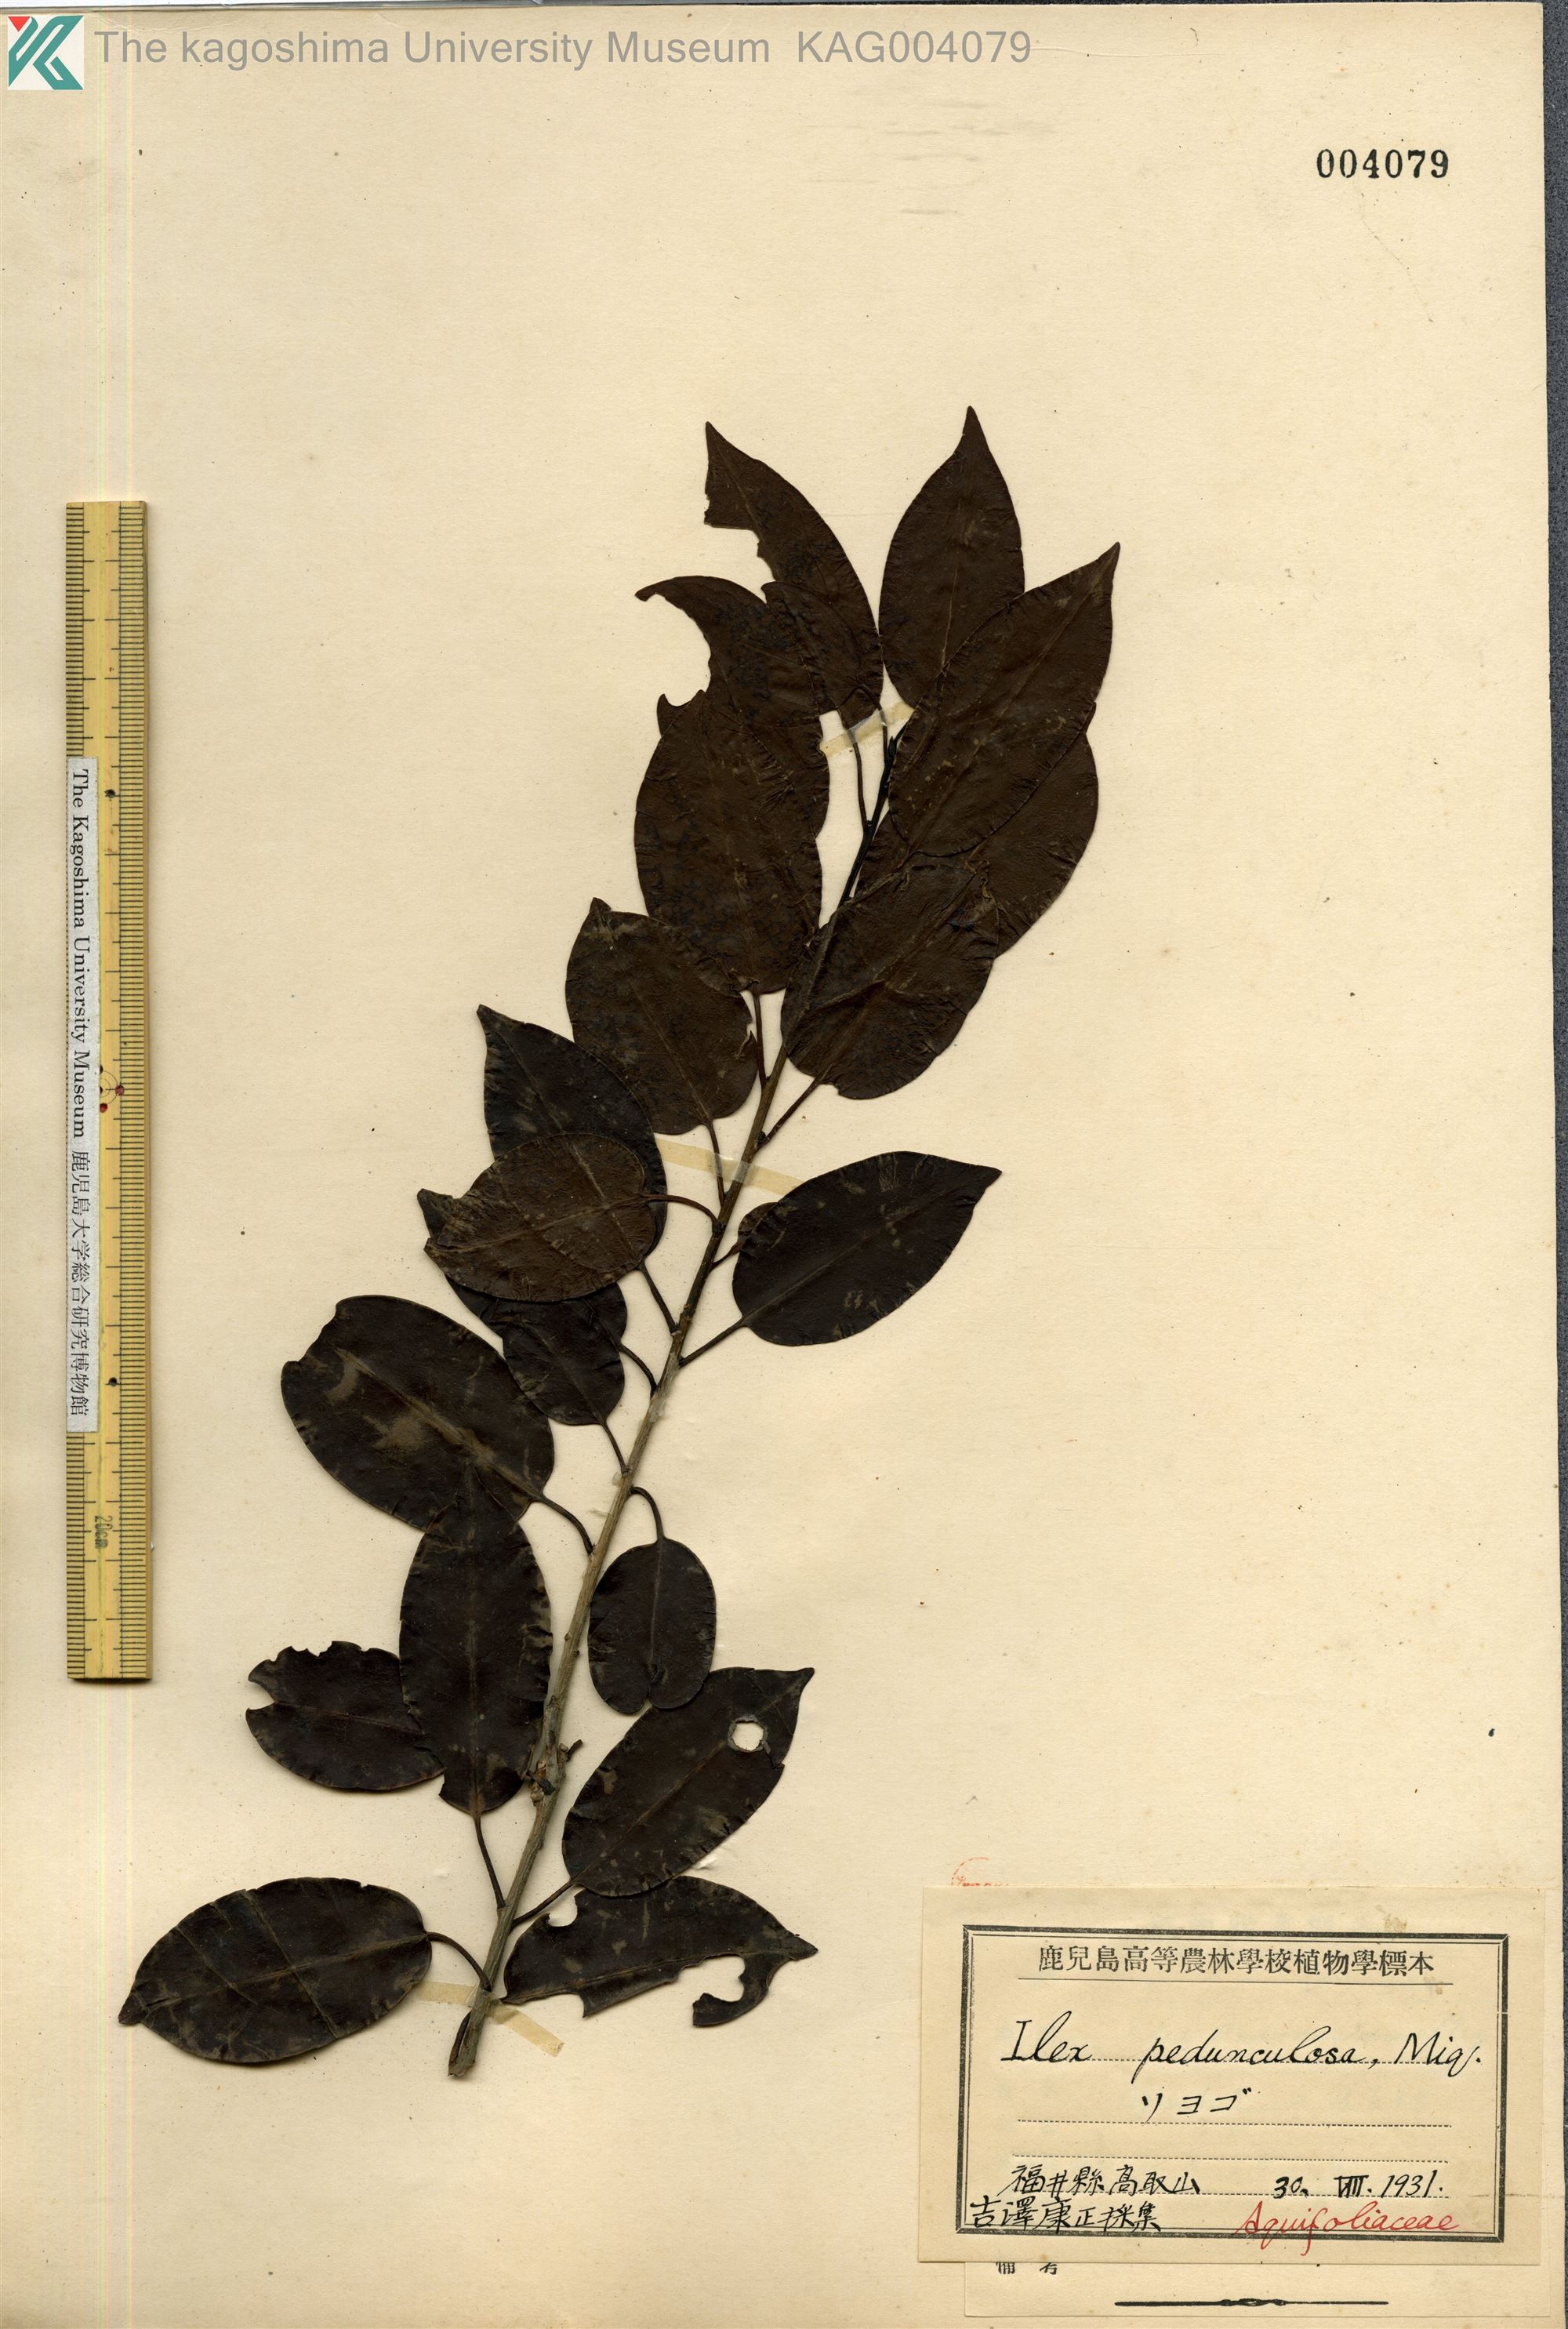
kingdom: Plantae
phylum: Tracheophyta
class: Magnoliopsida
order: Aquifoliales
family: Aquifoliaceae
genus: Ilex
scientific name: Ilex pedunculosa
